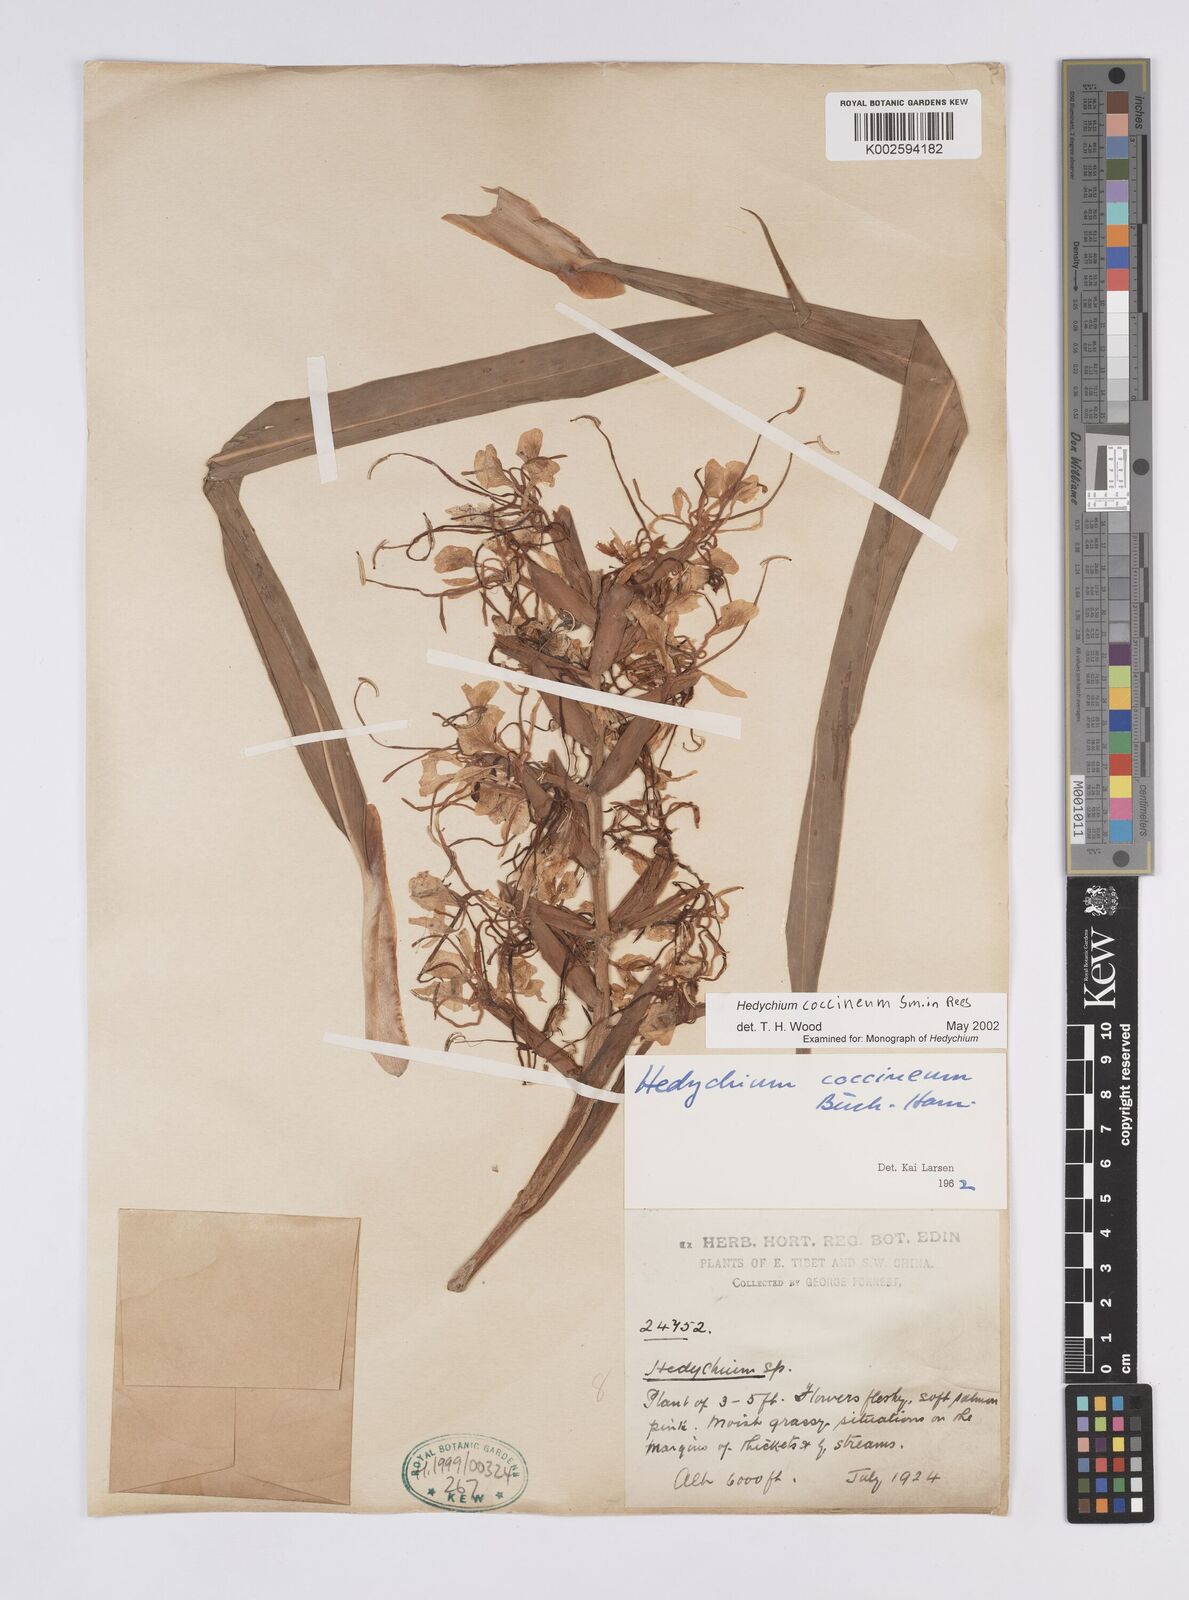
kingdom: Plantae
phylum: Tracheophyta
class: Liliopsida
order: Zingiberales
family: Zingiberaceae
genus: Hedychium
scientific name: Hedychium coccineum
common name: Red ginger-lily
